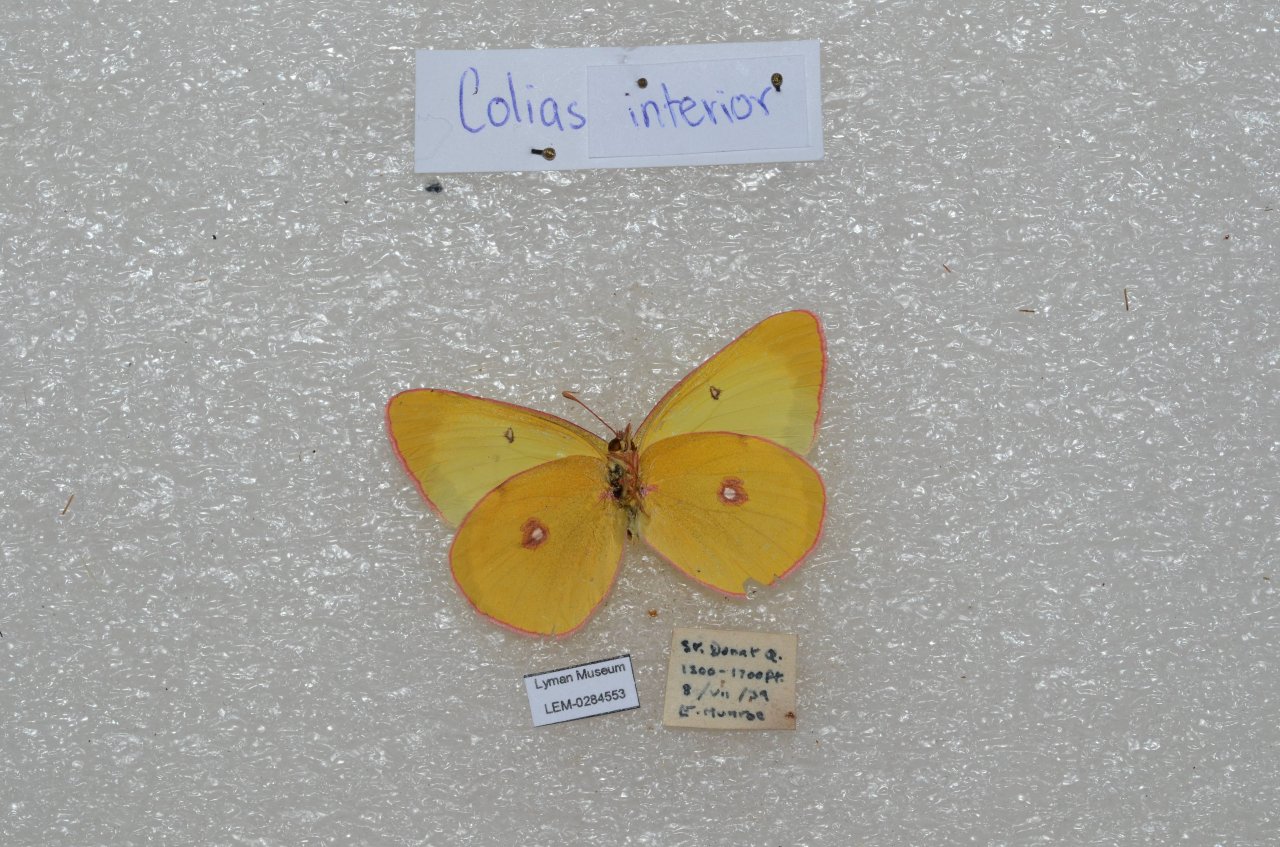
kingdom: Animalia
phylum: Arthropoda
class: Insecta
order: Lepidoptera
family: Pieridae
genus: Colias
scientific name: Colias interior
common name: Pink-edged Sulphur
